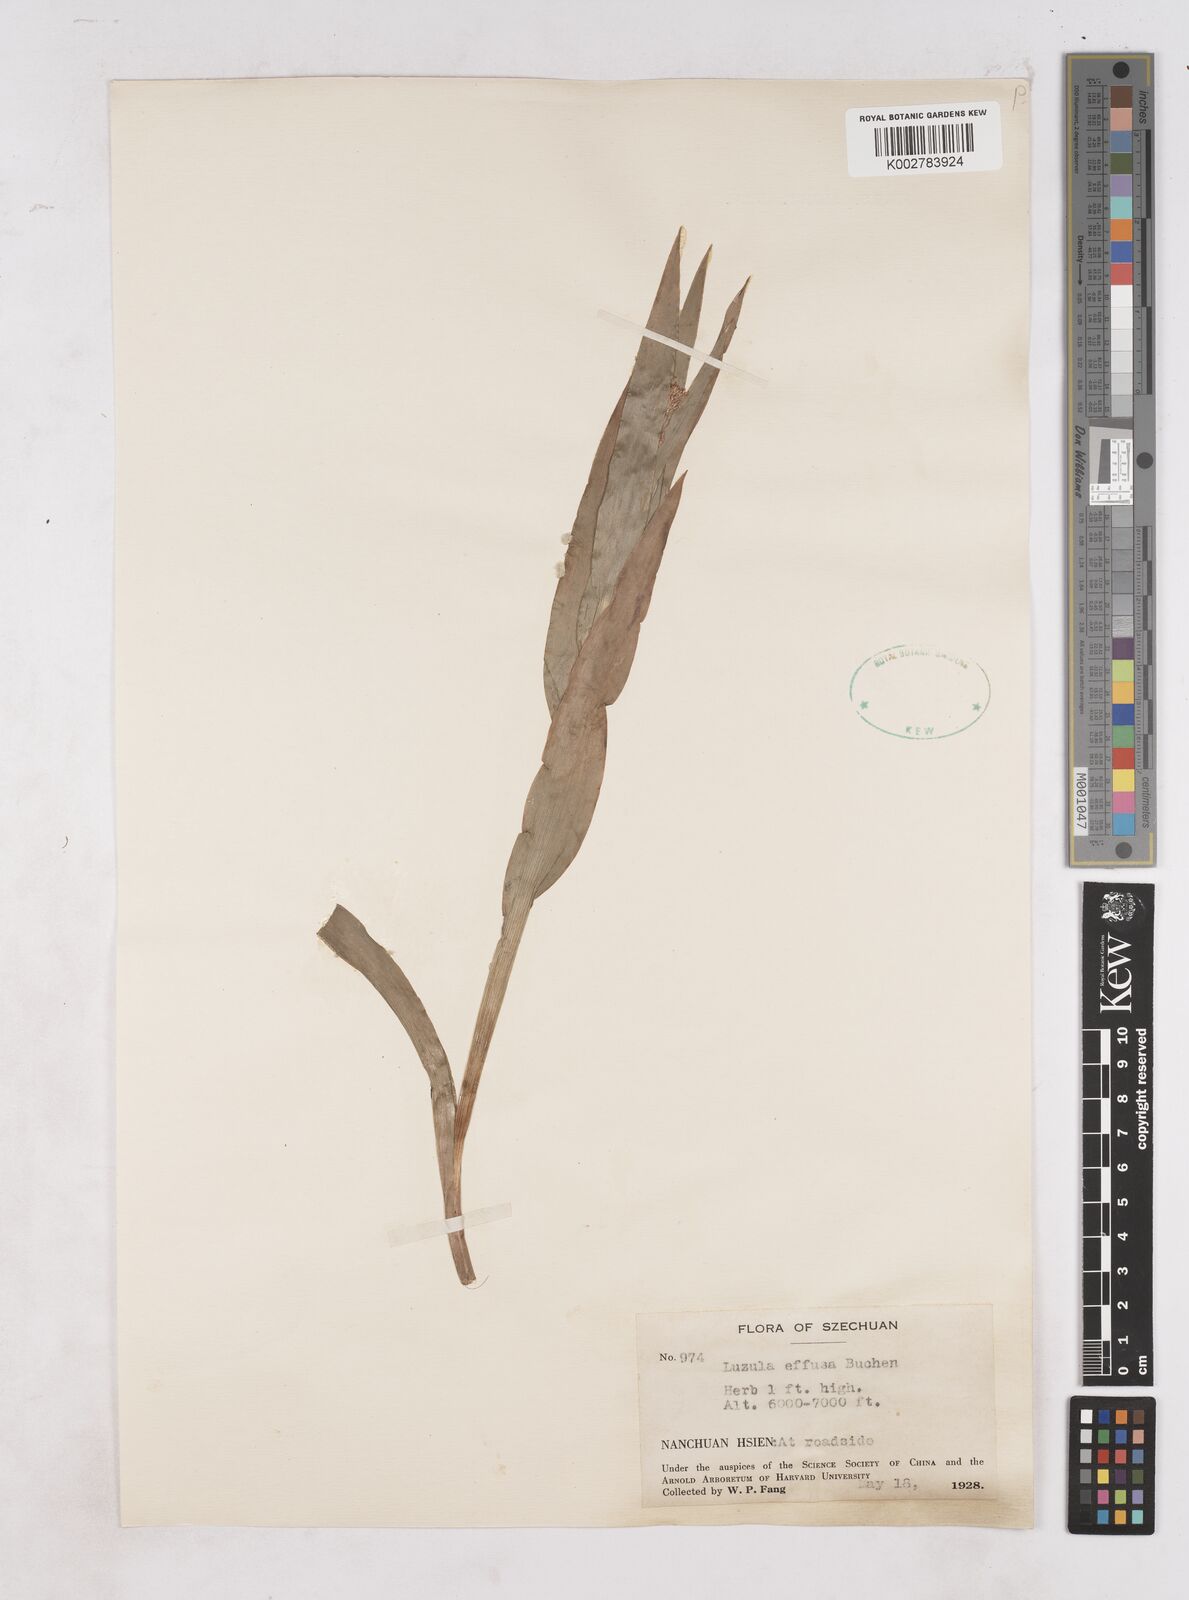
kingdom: Plantae
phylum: Tracheophyta
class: Liliopsida
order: Poales
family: Juncaceae
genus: Luzula
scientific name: Luzula effusa
